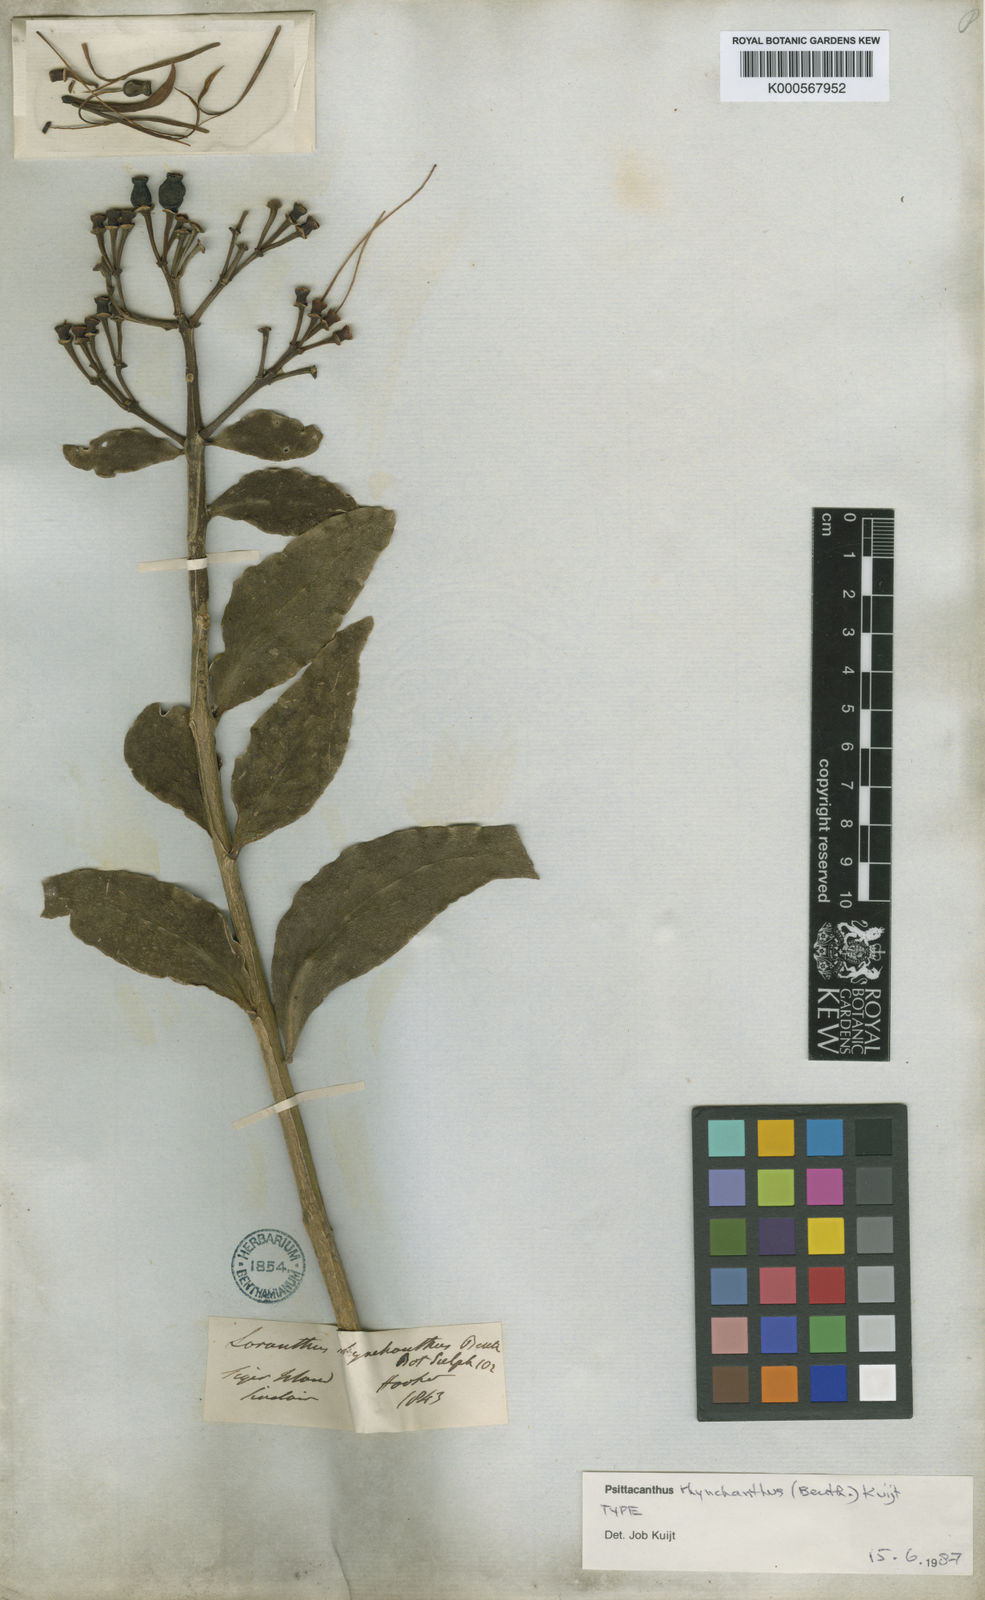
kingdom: Plantae
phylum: Tracheophyta
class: Magnoliopsida
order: Santalales
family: Loranthaceae
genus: Psittacanthus
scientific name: Psittacanthus rhynchanthus
